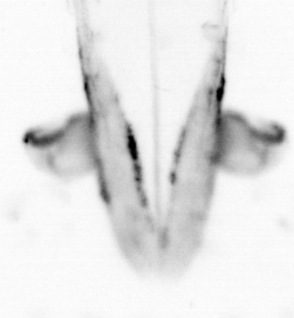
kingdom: Animalia
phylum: Chaetognatha
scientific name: Chaetognatha
